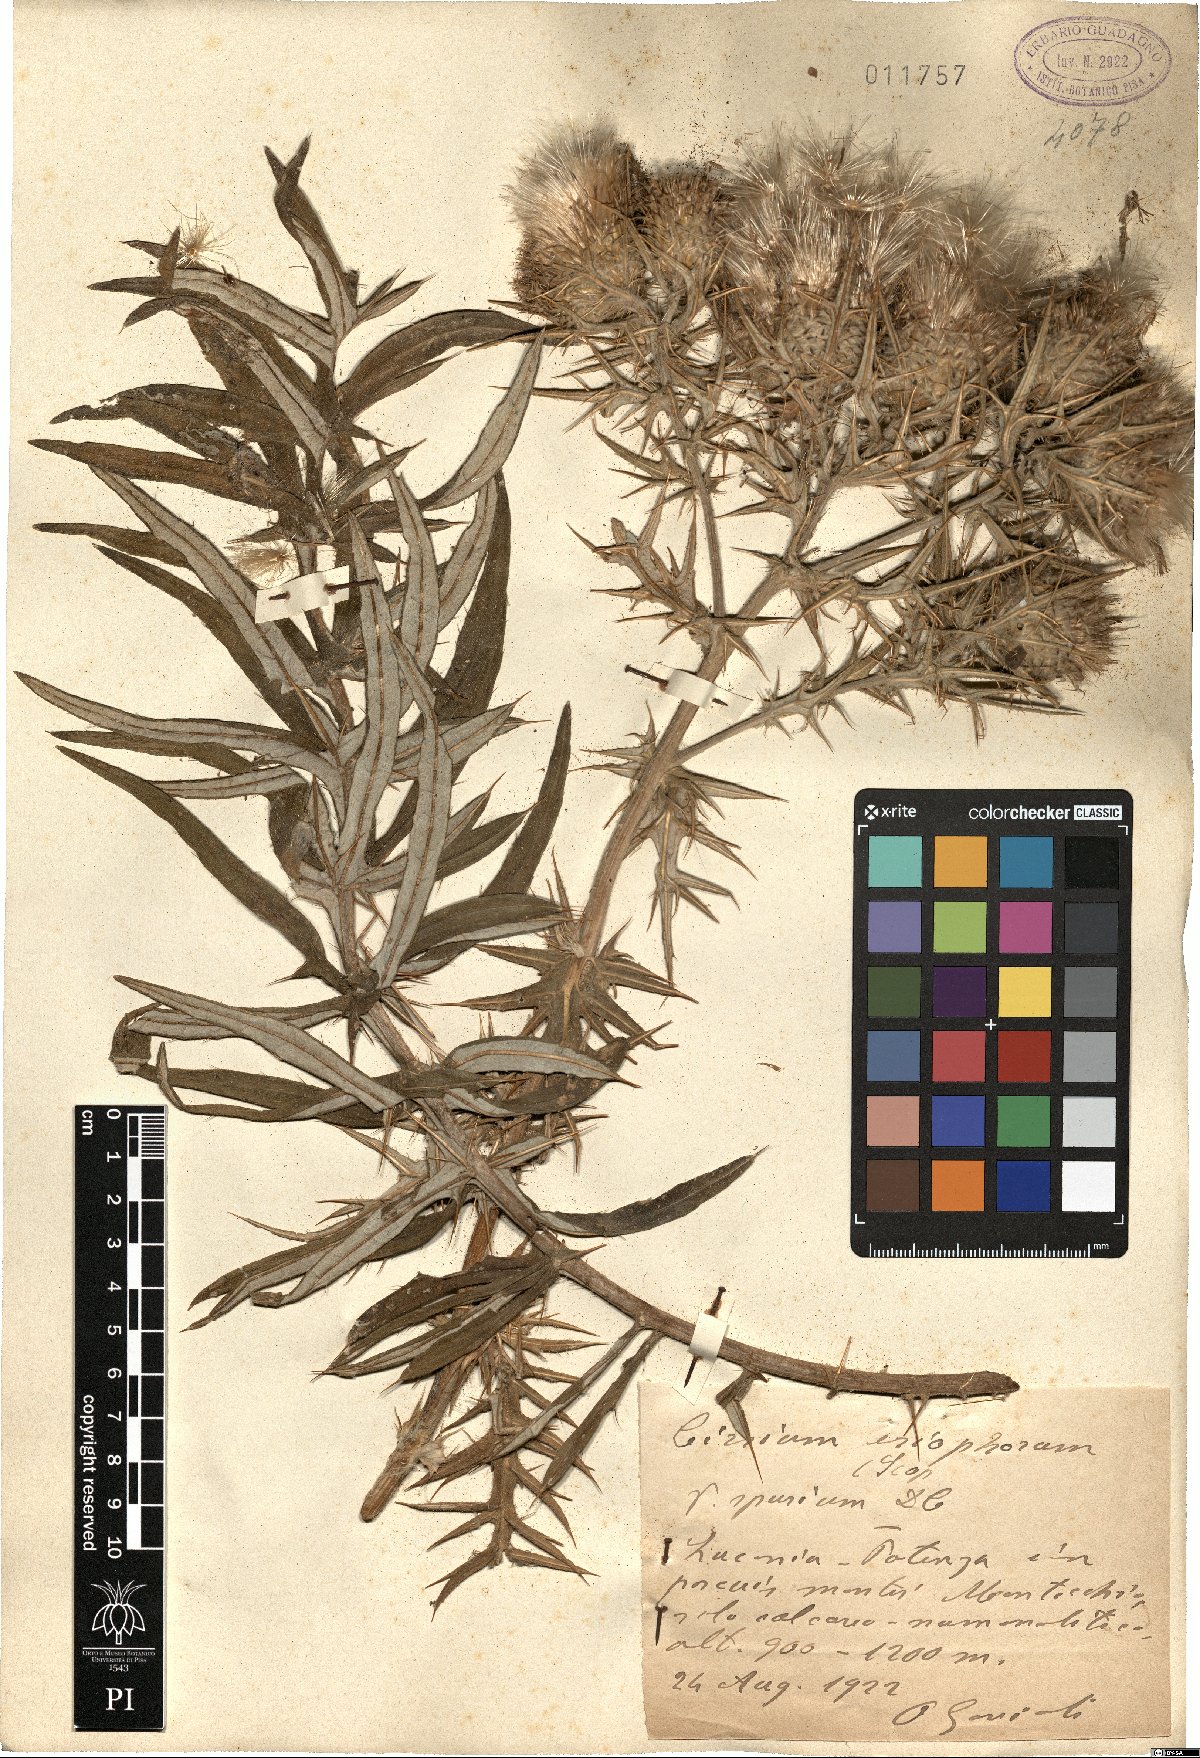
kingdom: Plantae
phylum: Tracheophyta
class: Magnoliopsida
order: Asterales
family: Asteraceae
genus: Lophiolepis
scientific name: Lophiolepis tenoreana
